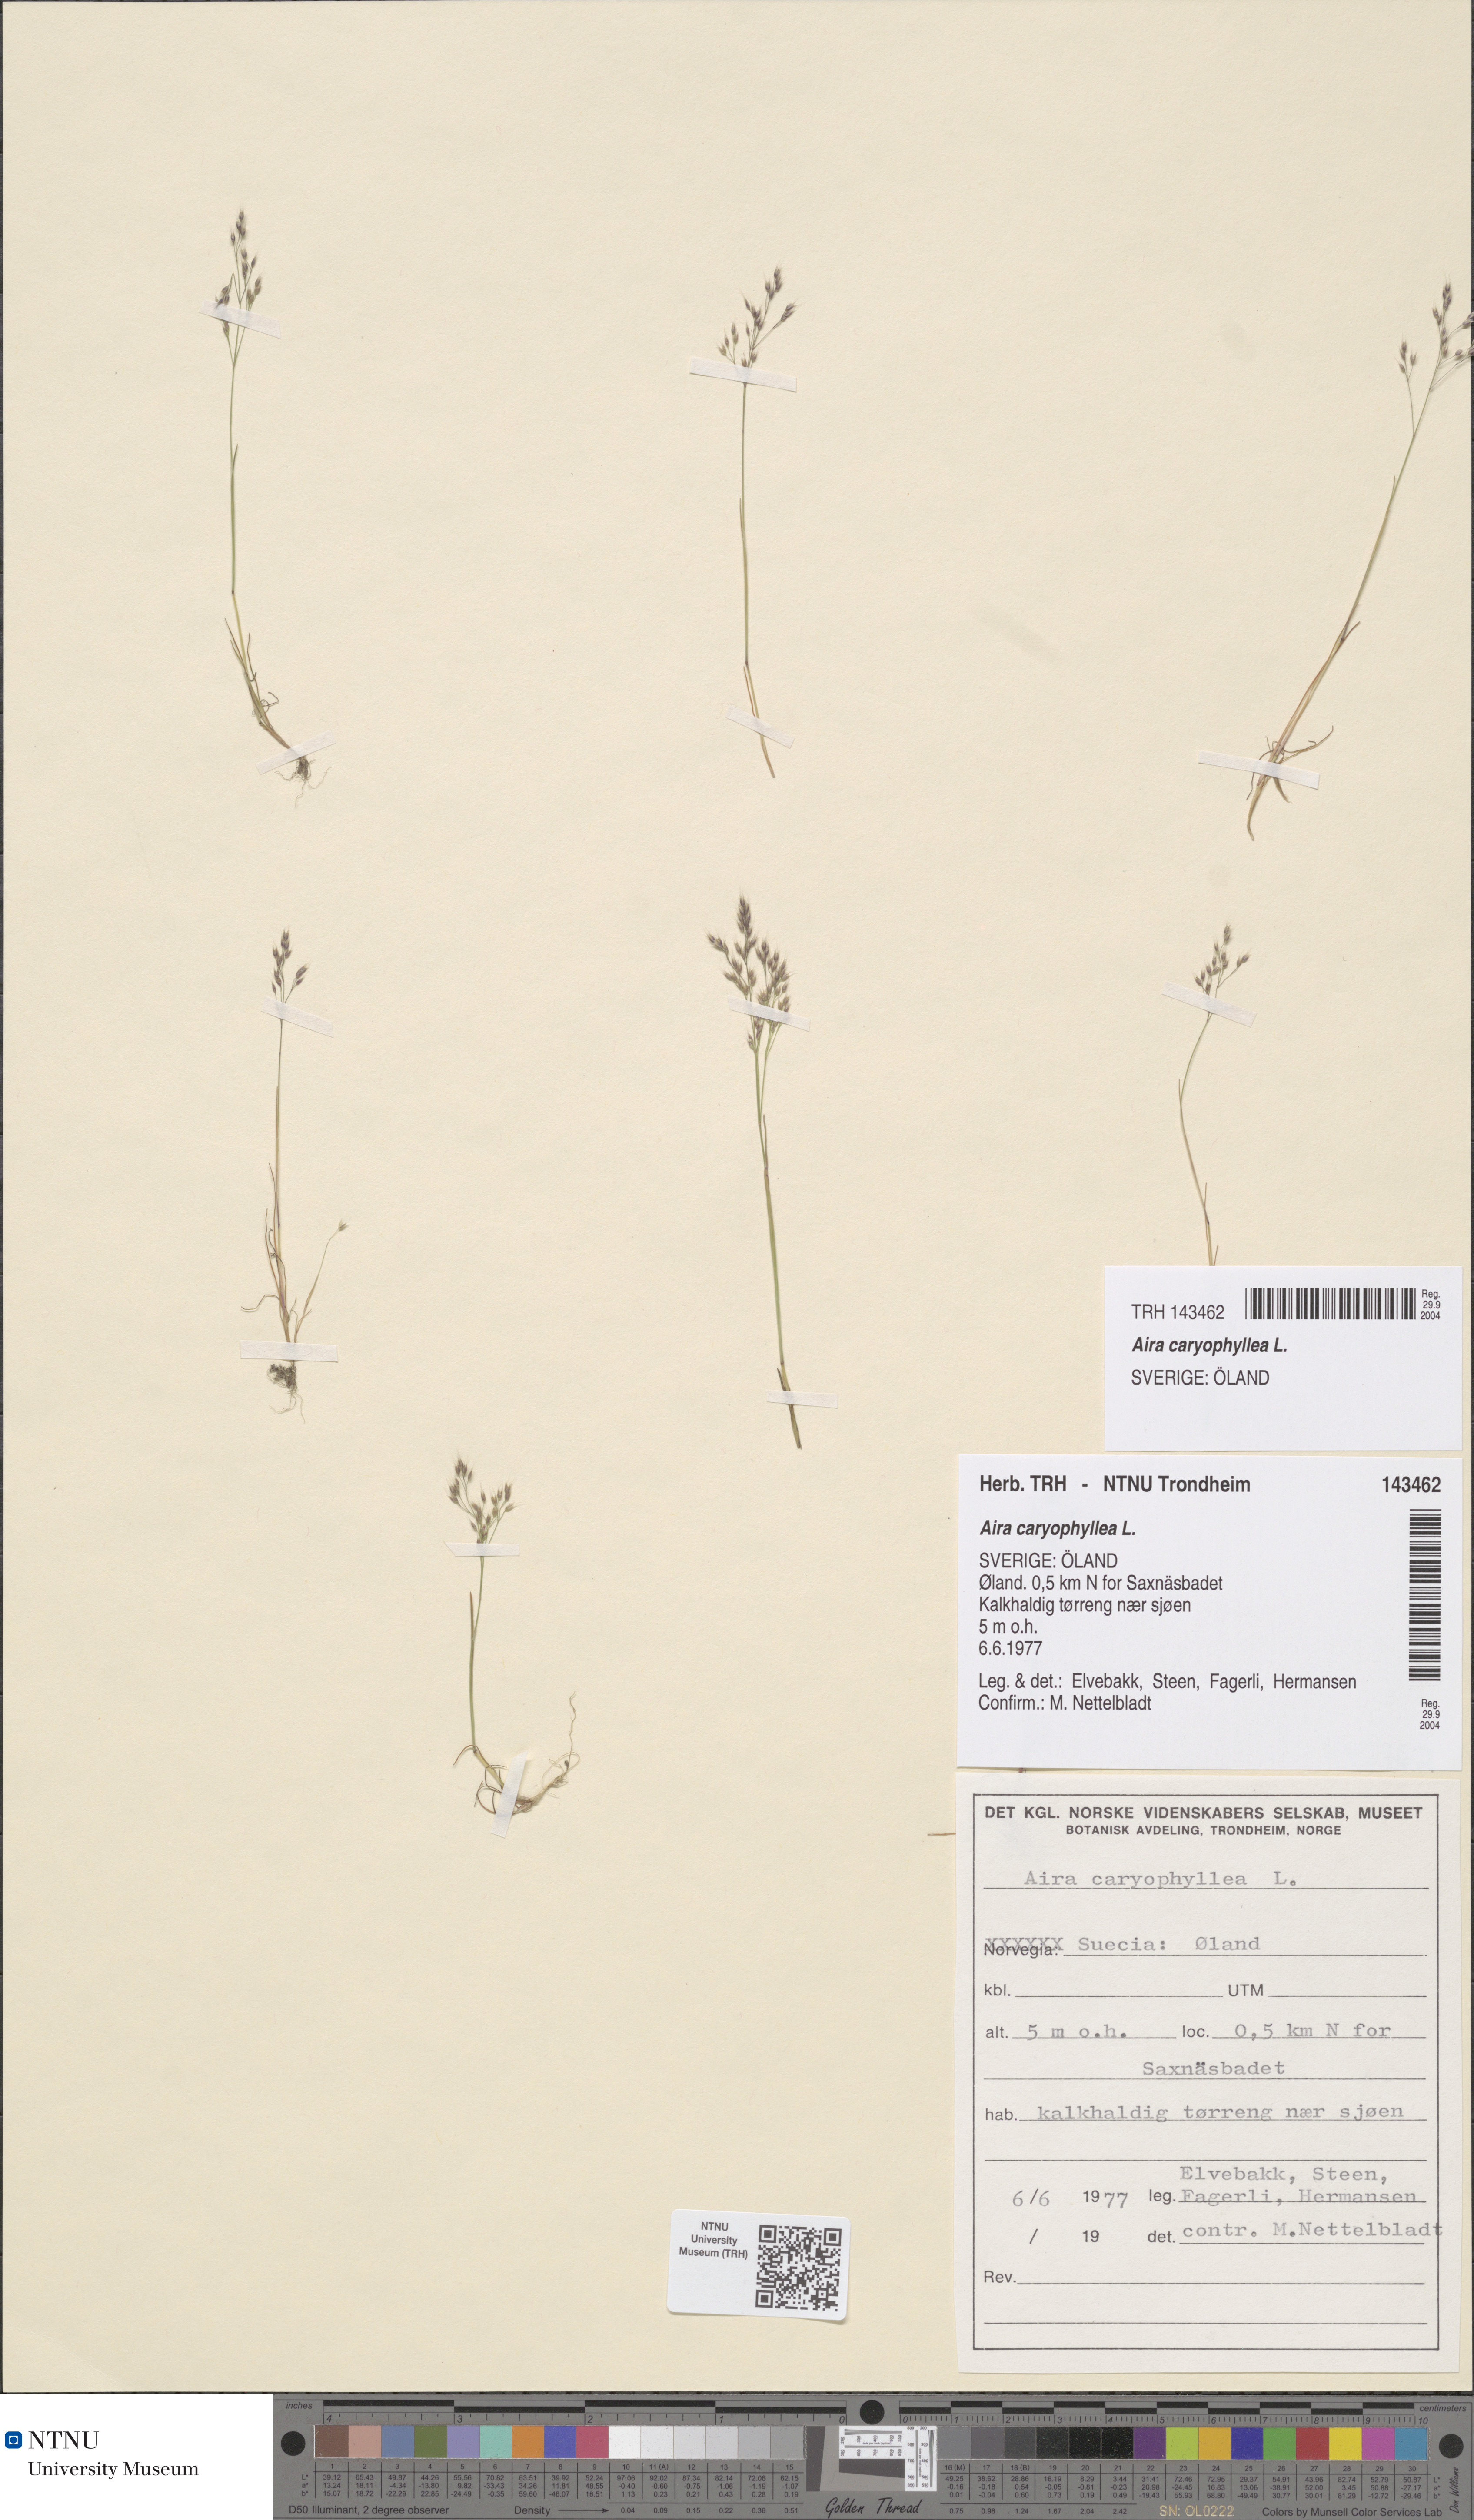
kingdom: Plantae
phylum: Tracheophyta
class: Liliopsida
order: Poales
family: Poaceae
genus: Aira
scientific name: Aira caryophyllea
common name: Silver hairgrass
